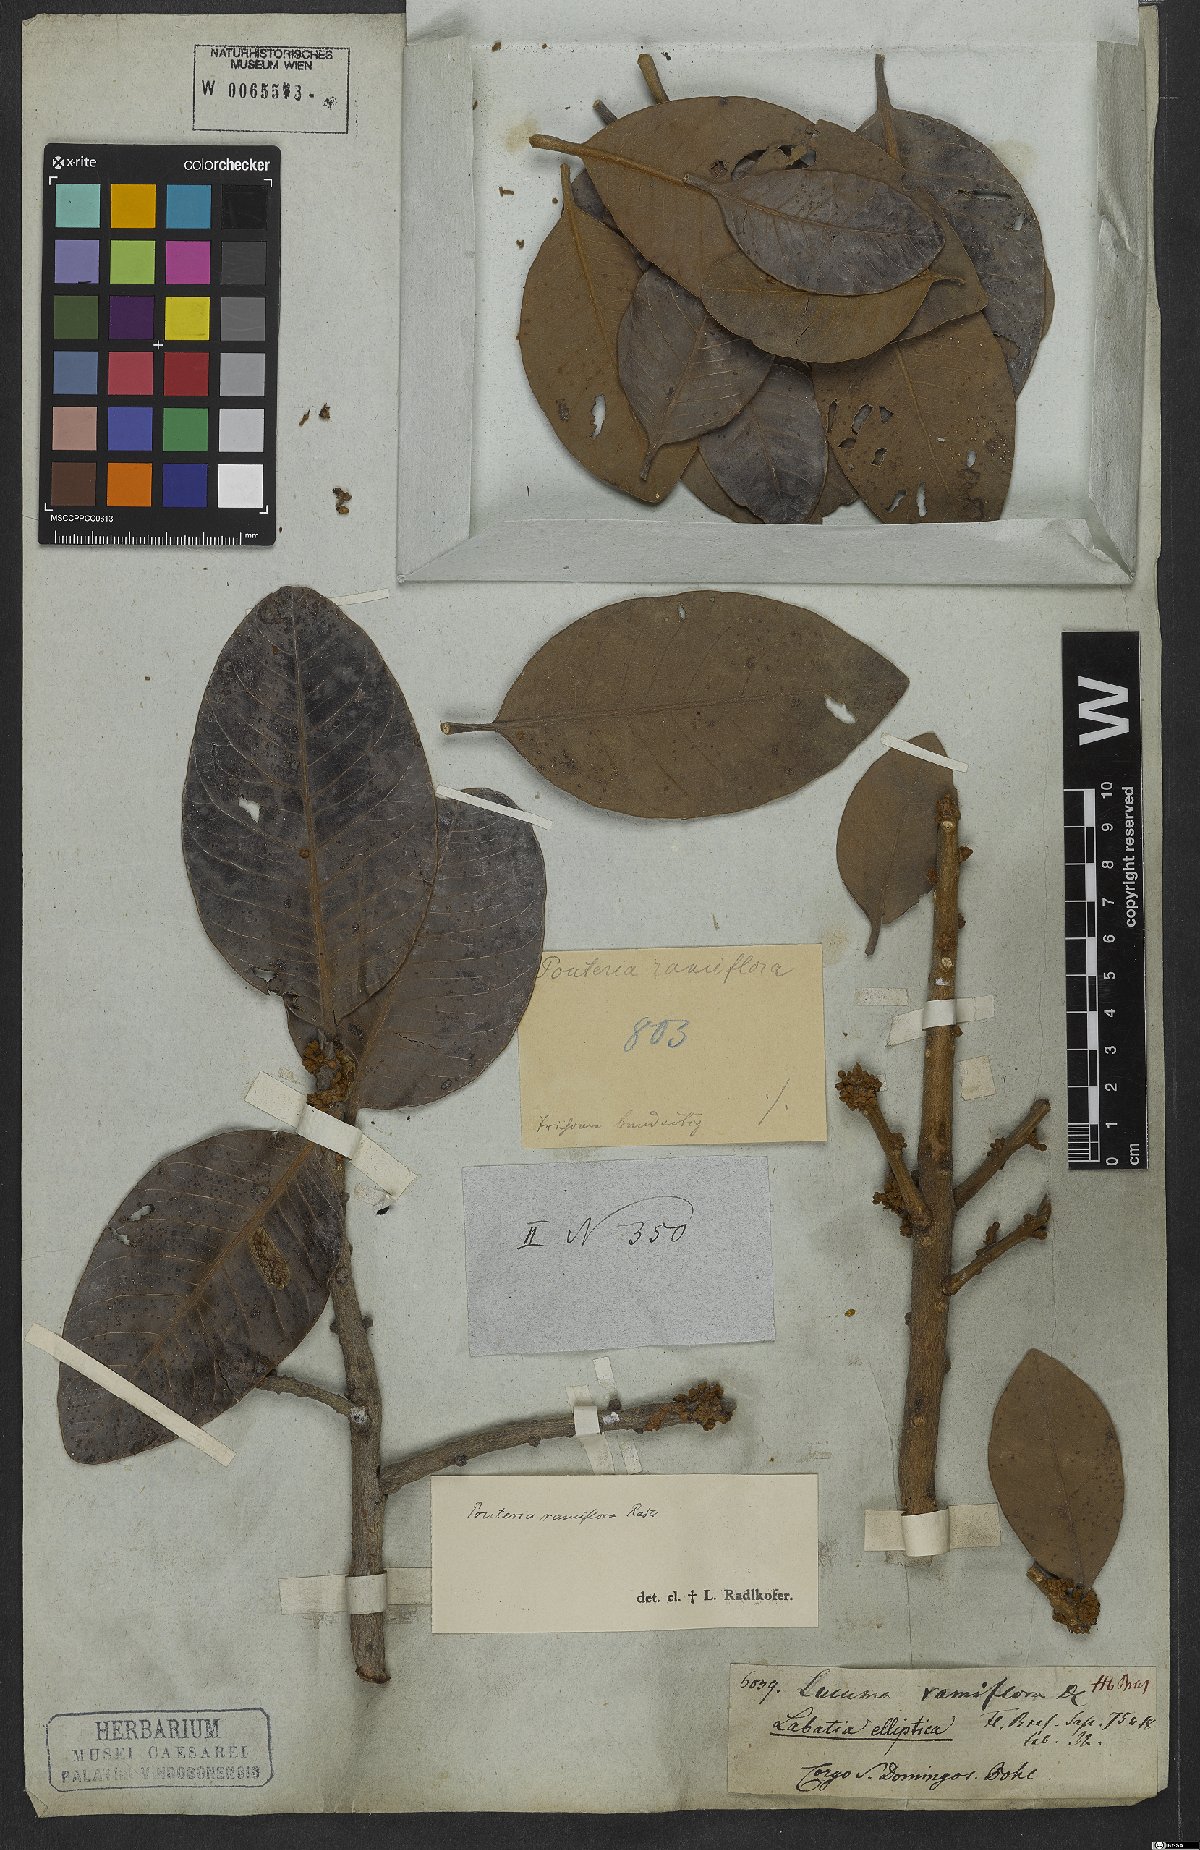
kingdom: Plantae
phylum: Tracheophyta
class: Magnoliopsida
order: Ericales
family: Sapotaceae
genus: Pouteria
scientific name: Pouteria ramiflora
